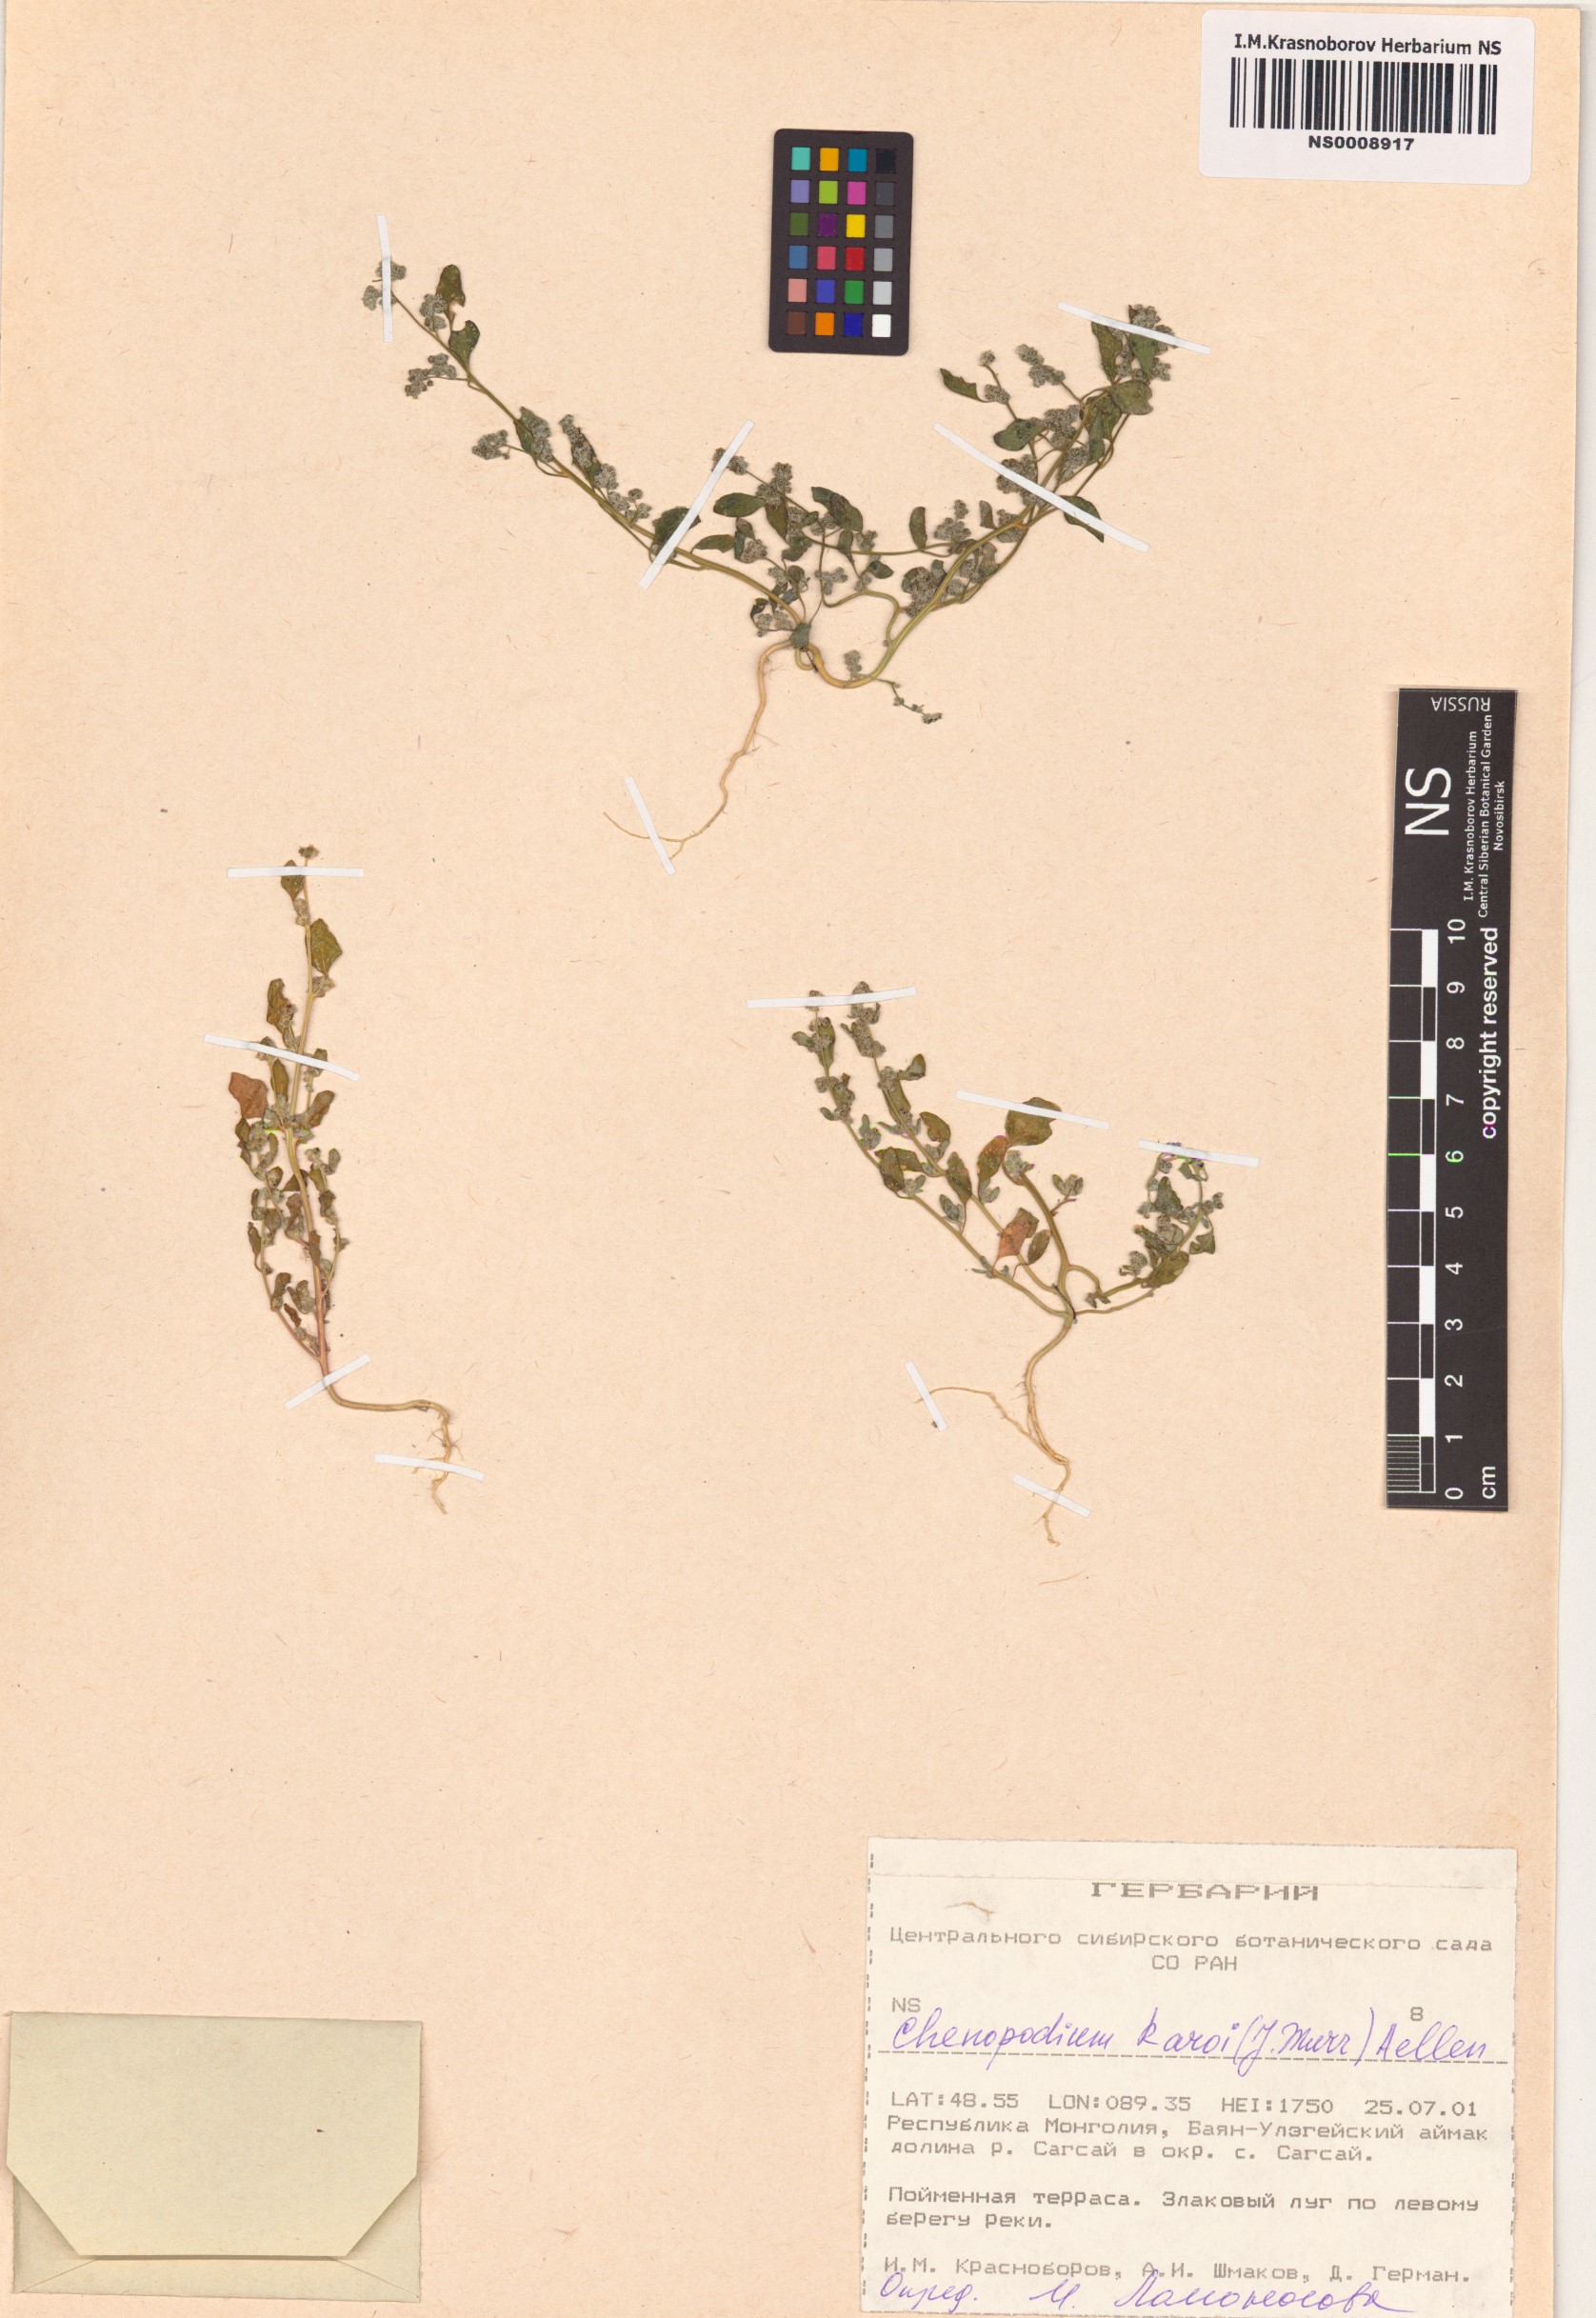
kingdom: Plantae
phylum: Tracheophyta
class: Magnoliopsida
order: Caryophyllales
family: Amaranthaceae
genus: Chenopodium
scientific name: Chenopodium karoi
